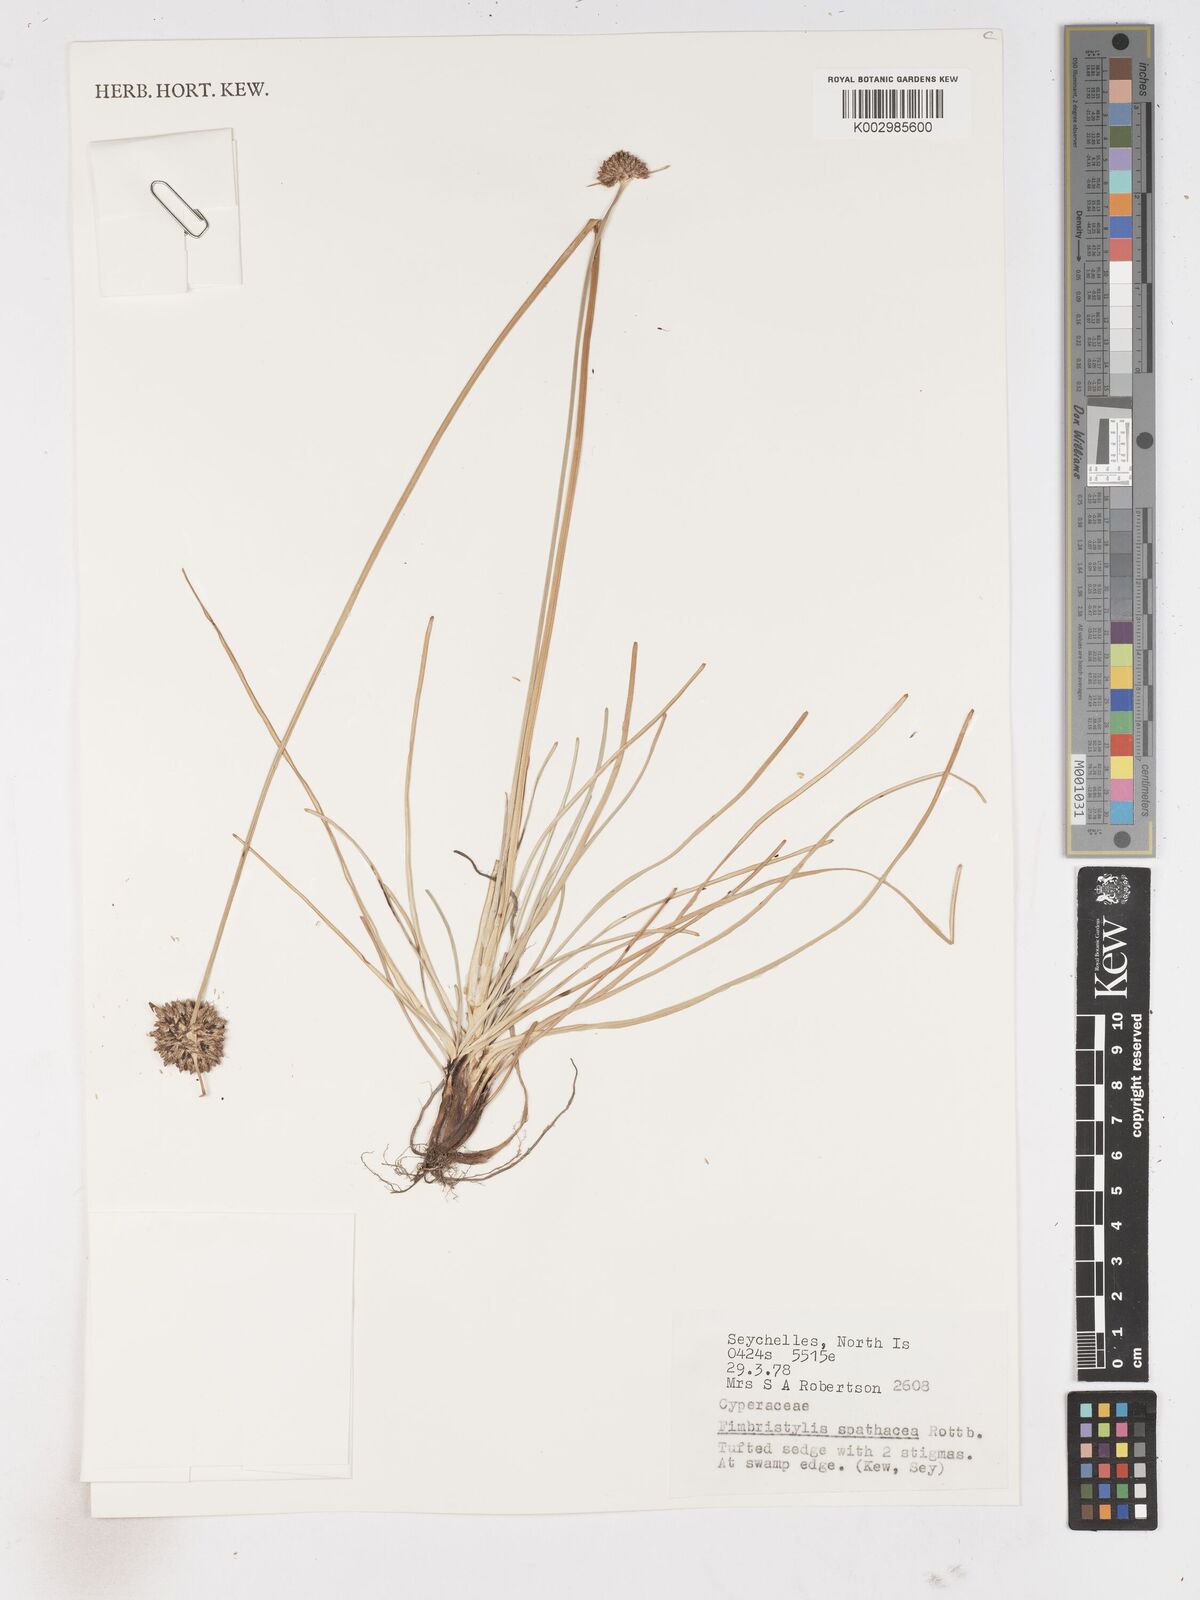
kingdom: Plantae
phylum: Tracheophyta
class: Liliopsida
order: Poales
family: Cyperaceae
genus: Fimbristylis
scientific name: Fimbristylis cymosa
